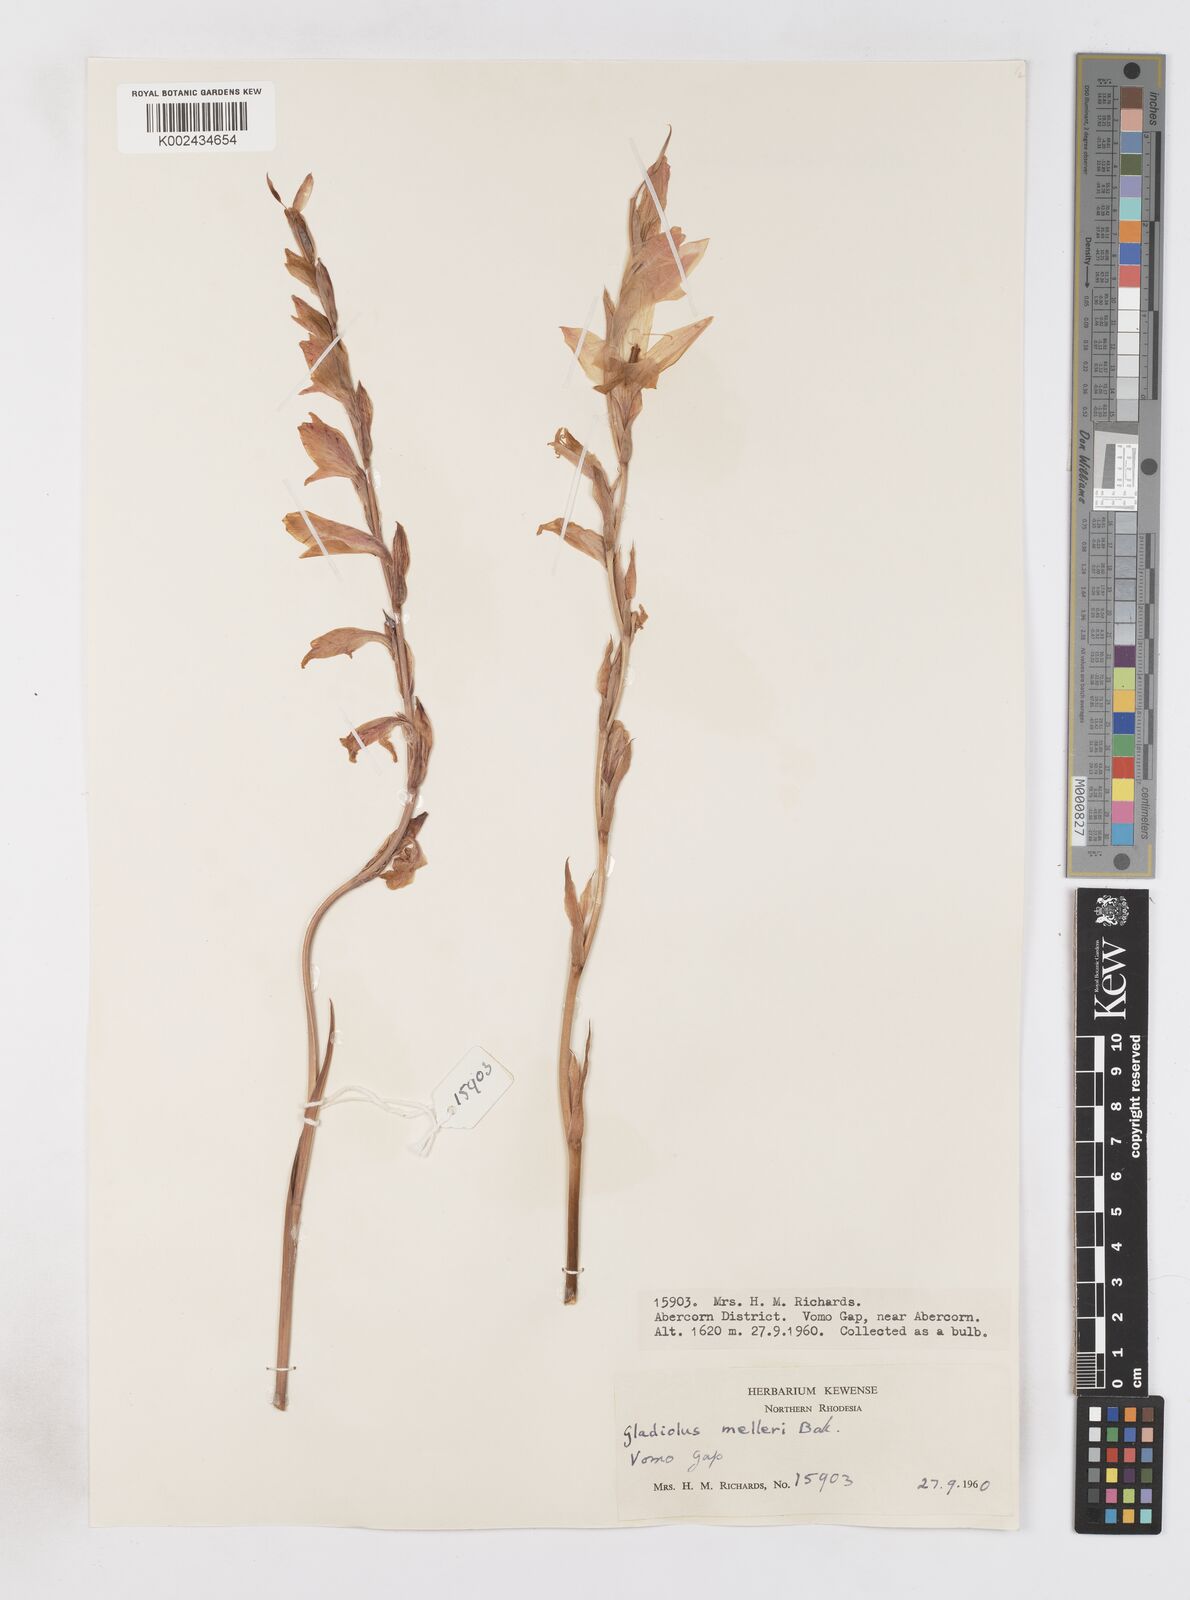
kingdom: Plantae
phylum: Tracheophyta
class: Liliopsida
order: Asparagales
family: Iridaceae
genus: Gladiolus
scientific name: Gladiolus melleri
